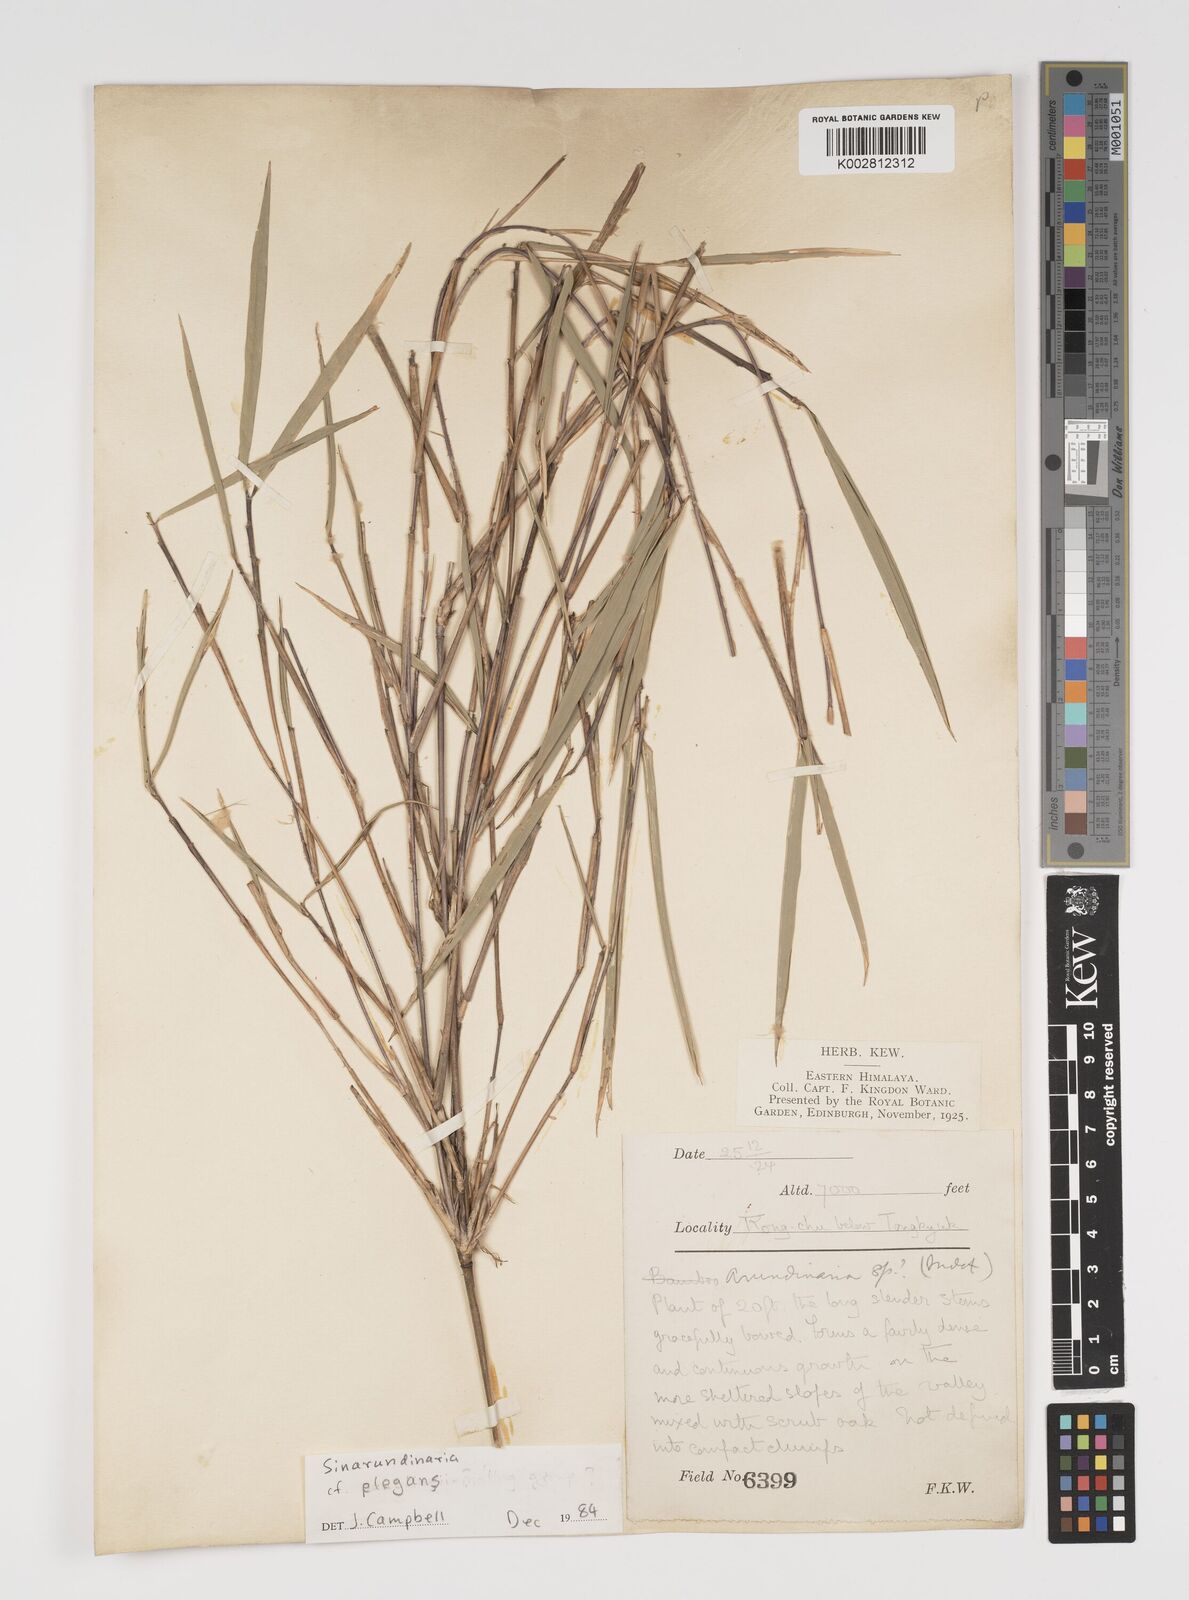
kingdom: Plantae
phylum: Tracheophyta
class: Liliopsida
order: Poales
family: Poaceae
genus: Yushania
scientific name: Yushania
